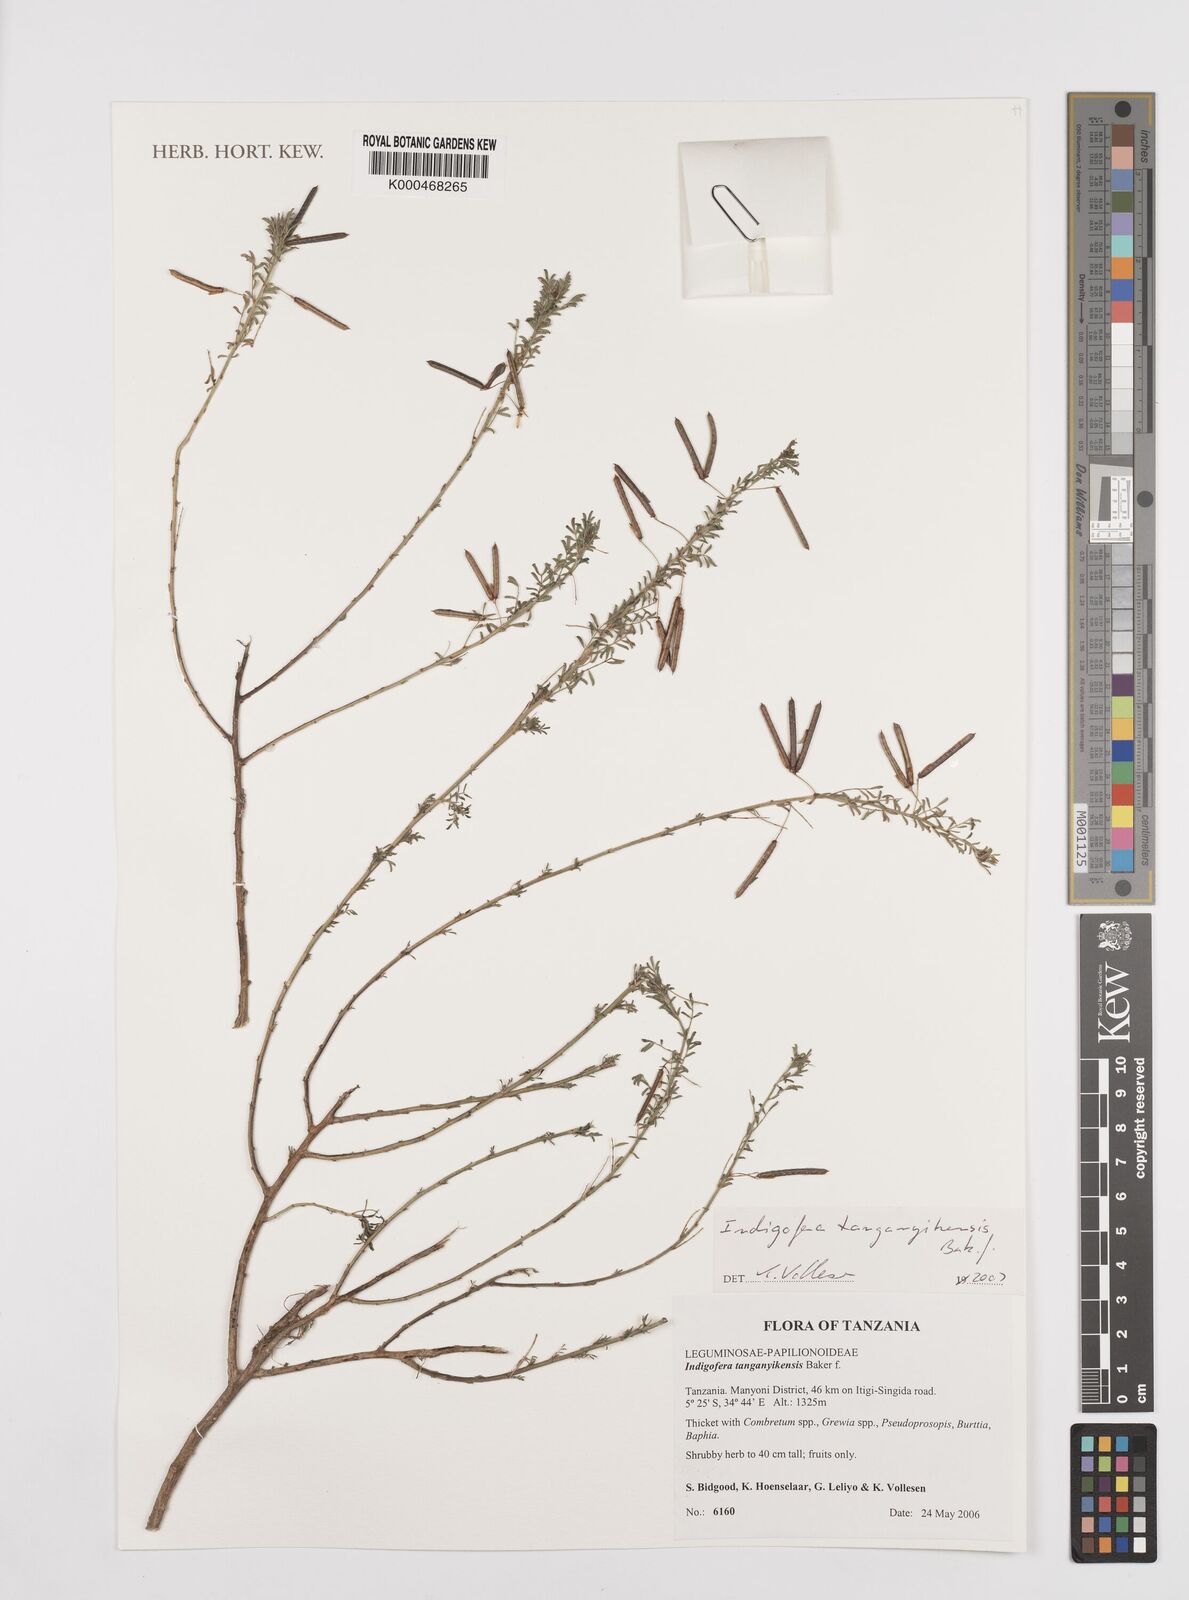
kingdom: Plantae
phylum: Tracheophyta
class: Magnoliopsida
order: Fabales
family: Fabaceae
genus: Indigofera
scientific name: Indigofera tanganyikensis
